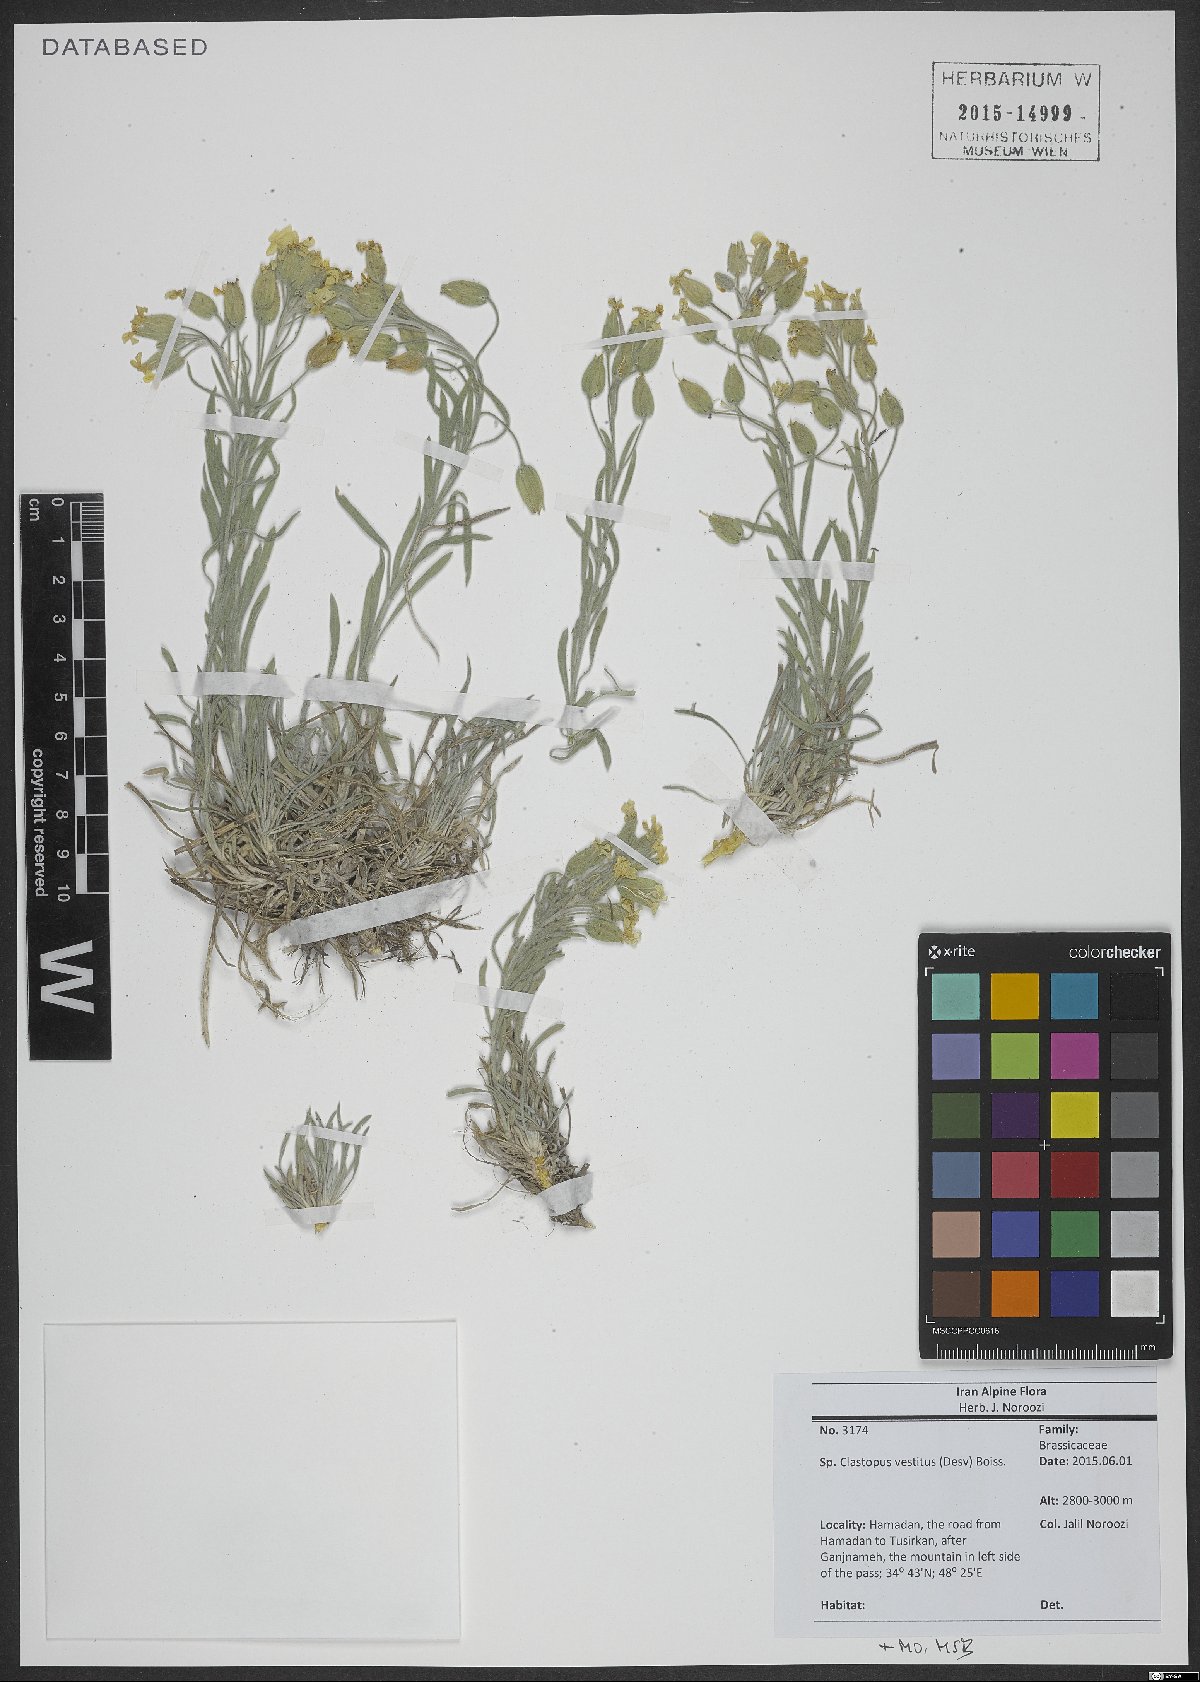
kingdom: Plantae
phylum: Tracheophyta
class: Magnoliopsida
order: Brassicales
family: Brassicaceae
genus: Clastopus
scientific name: Clastopus vestitus
